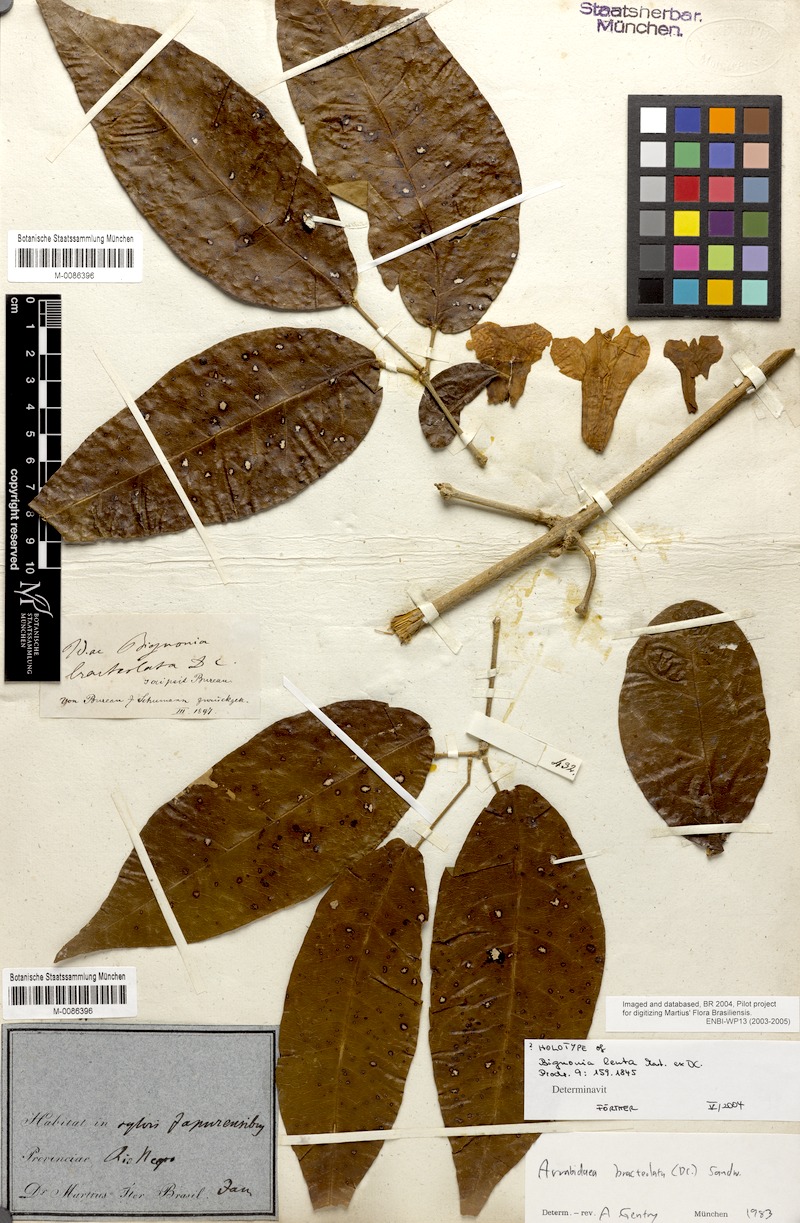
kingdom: Plantae
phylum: Tracheophyta
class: Magnoliopsida
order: Lamiales
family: Bignoniaceae
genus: Tanaecium
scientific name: Tanaecium pyramidatum
